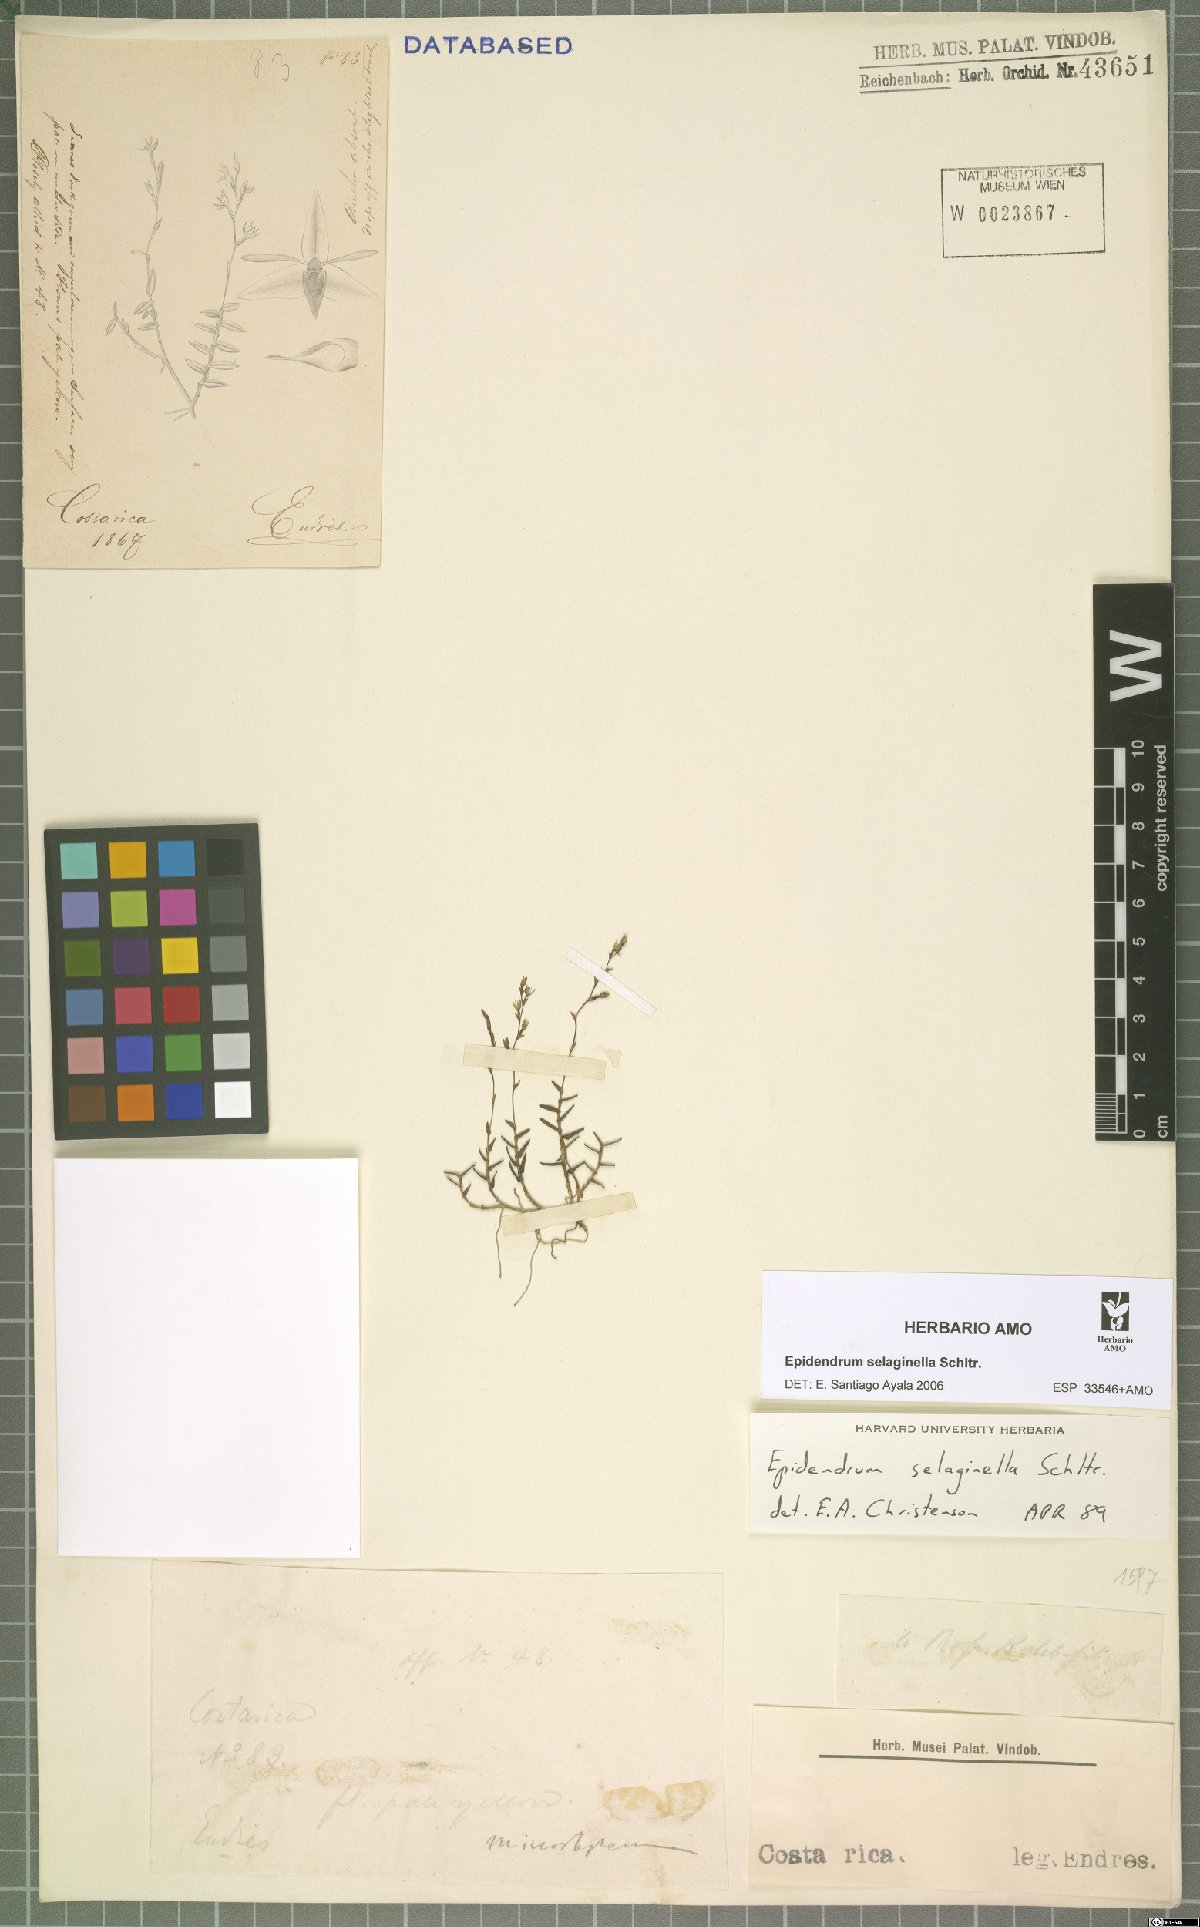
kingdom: Plantae
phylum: Tracheophyta
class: Liliopsida
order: Asparagales
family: Orchidaceae
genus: Epidendrum
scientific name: Epidendrum selaginella
